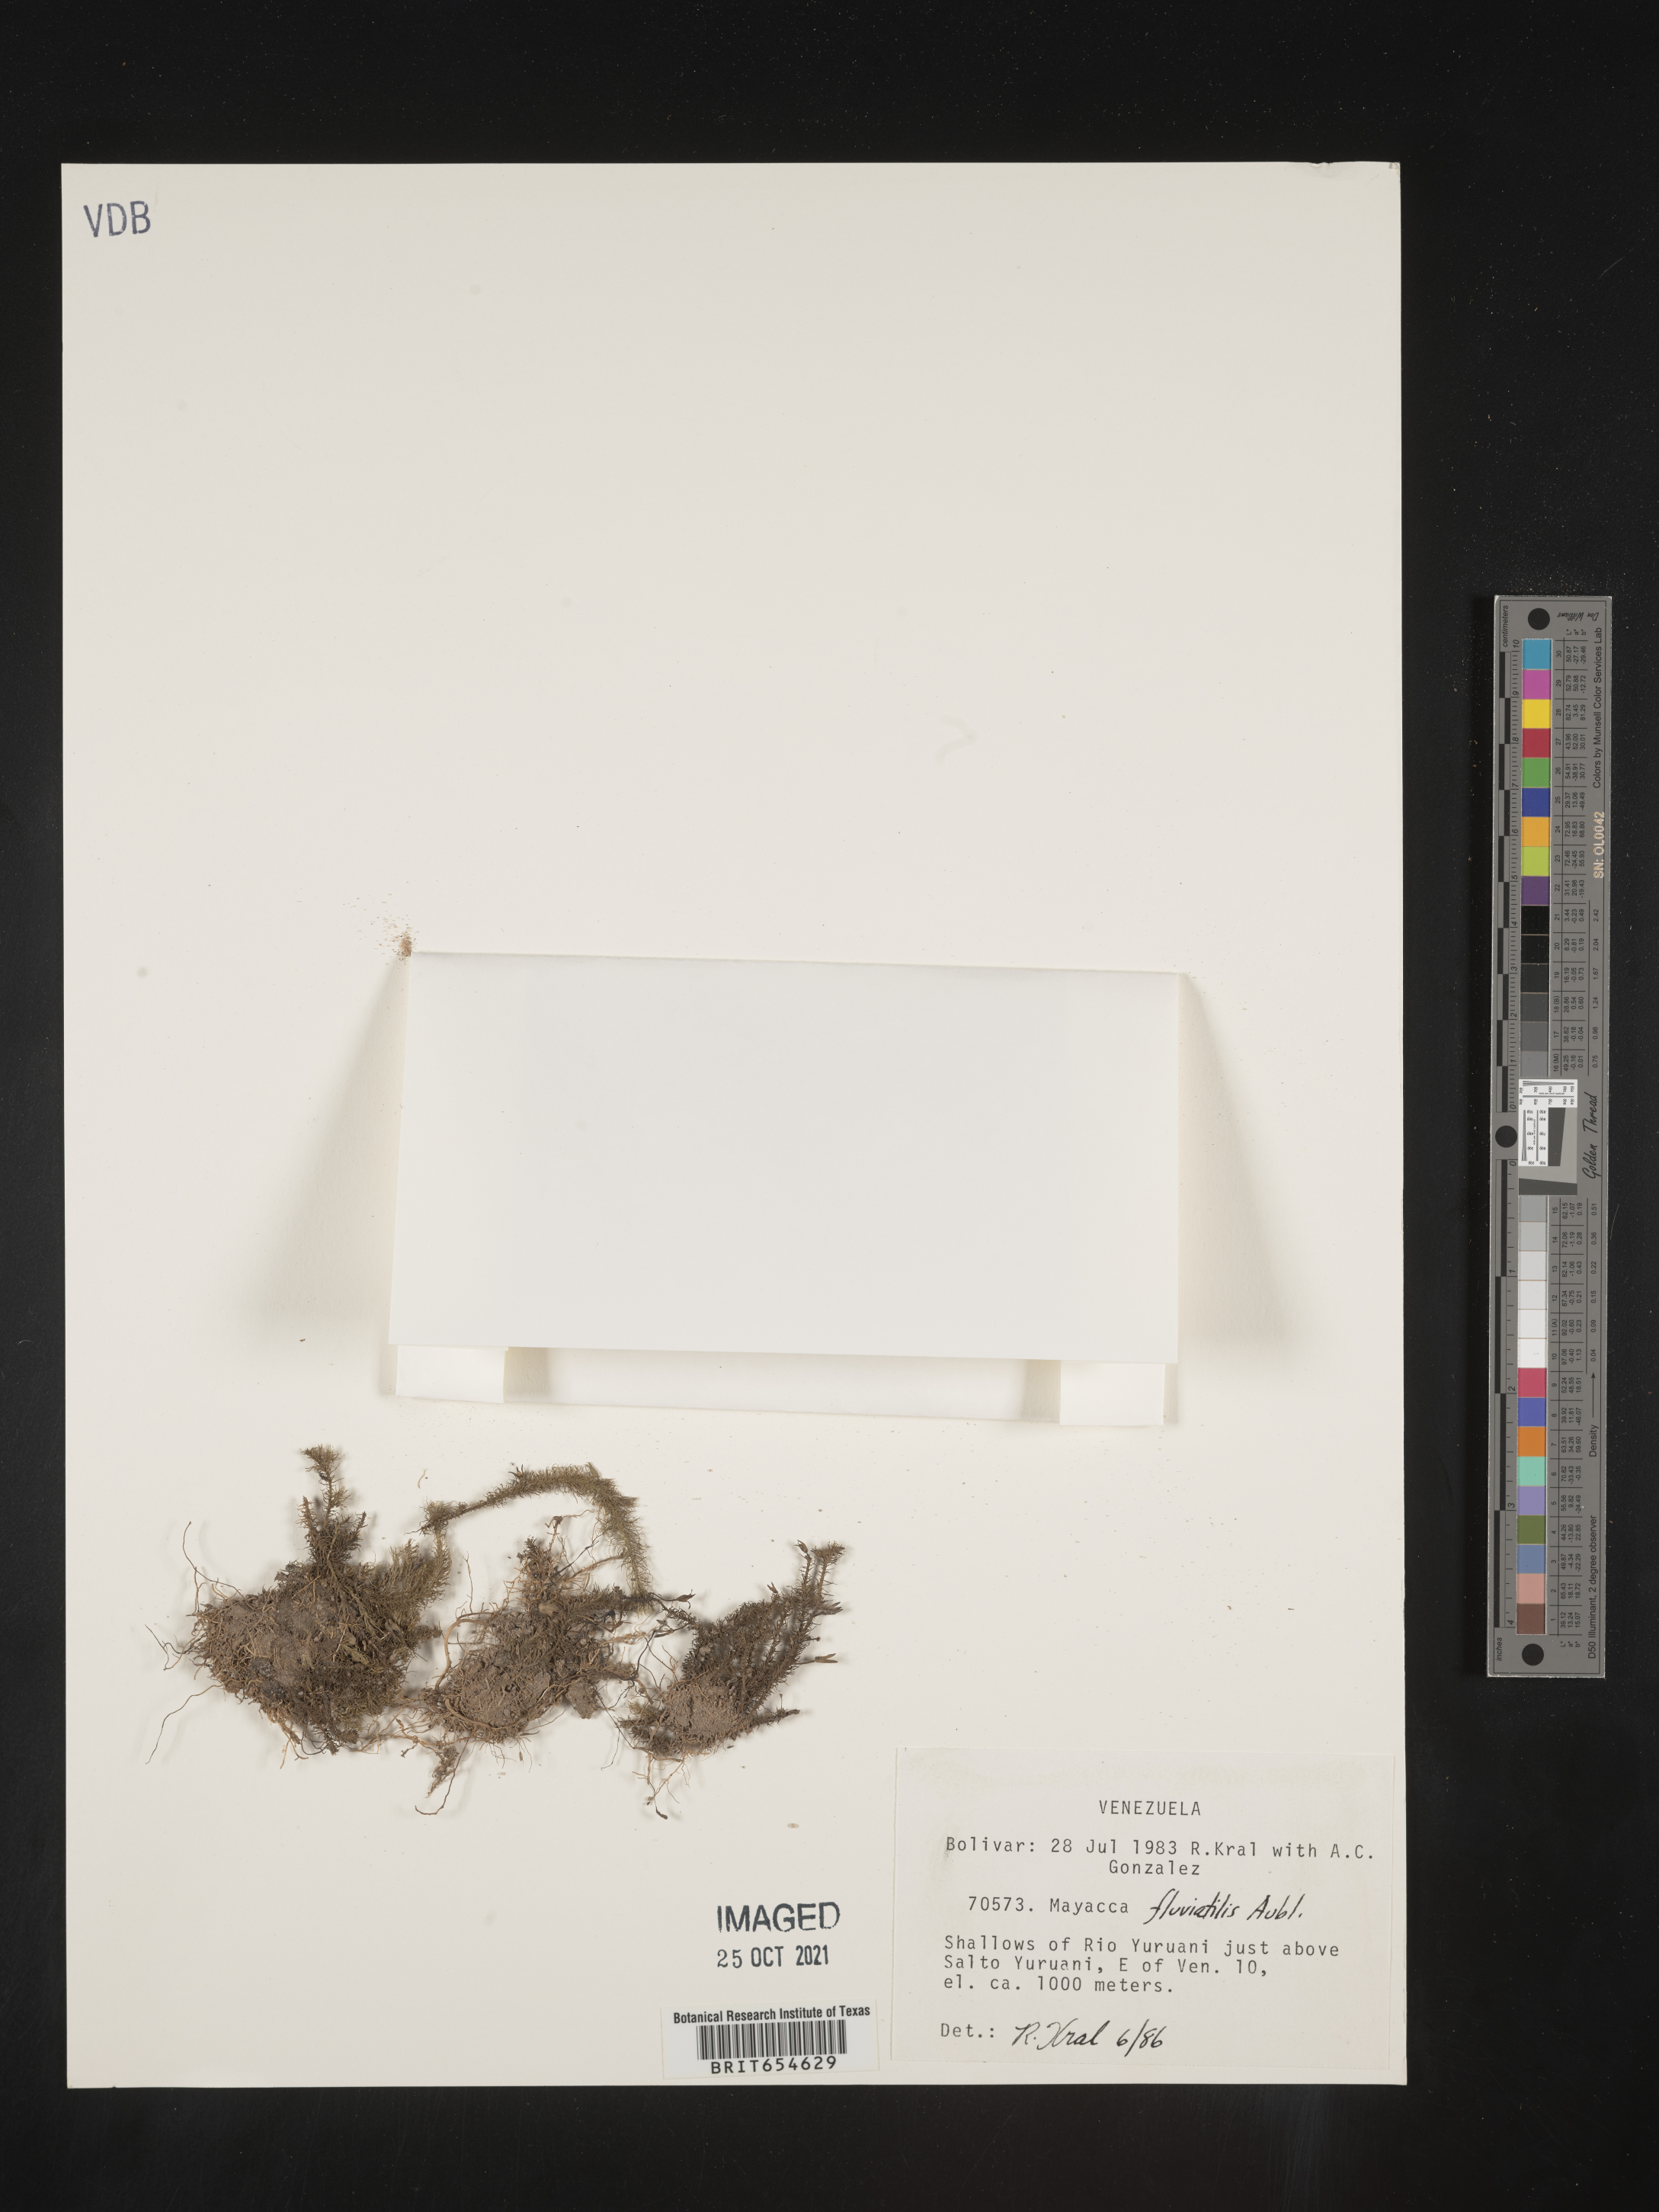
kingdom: Plantae
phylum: Tracheophyta
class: Liliopsida
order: Poales
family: Mayacaceae
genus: Mayaca
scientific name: Mayaca
